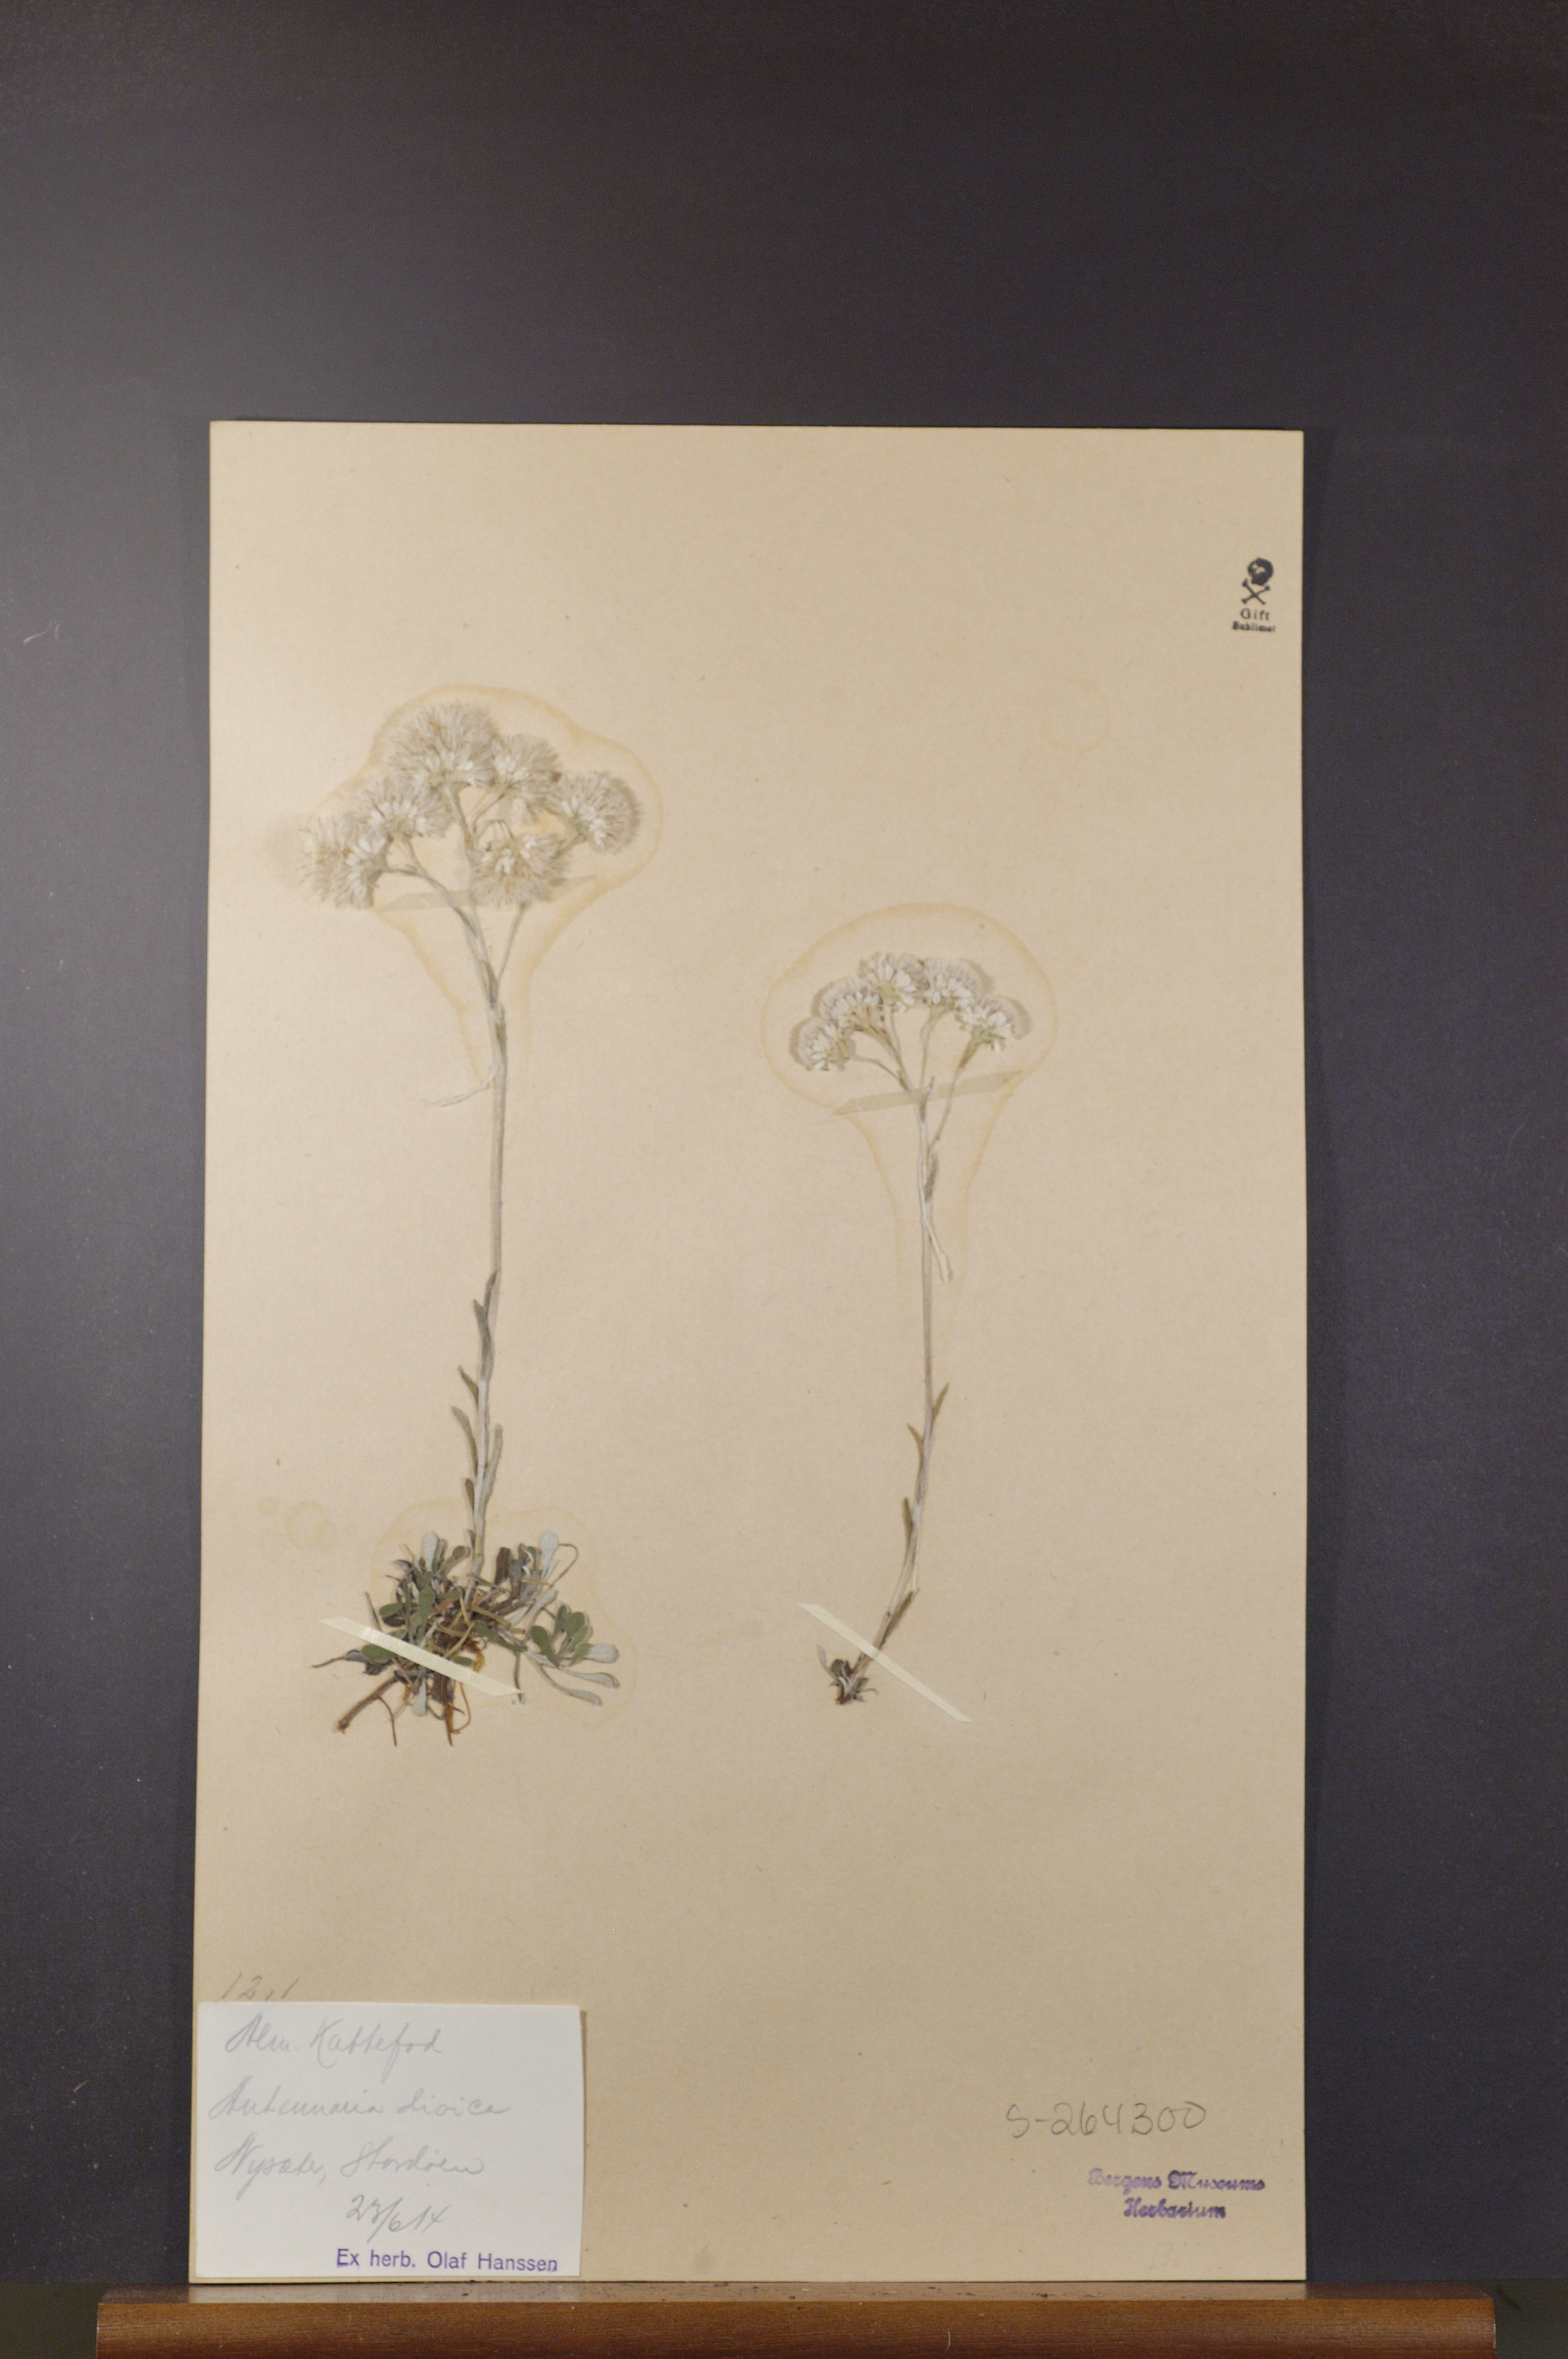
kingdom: Plantae
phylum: Tracheophyta
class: Magnoliopsida
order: Asterales
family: Asteraceae
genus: Antennaria
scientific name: Antennaria dioica
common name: Mountain everlasting
